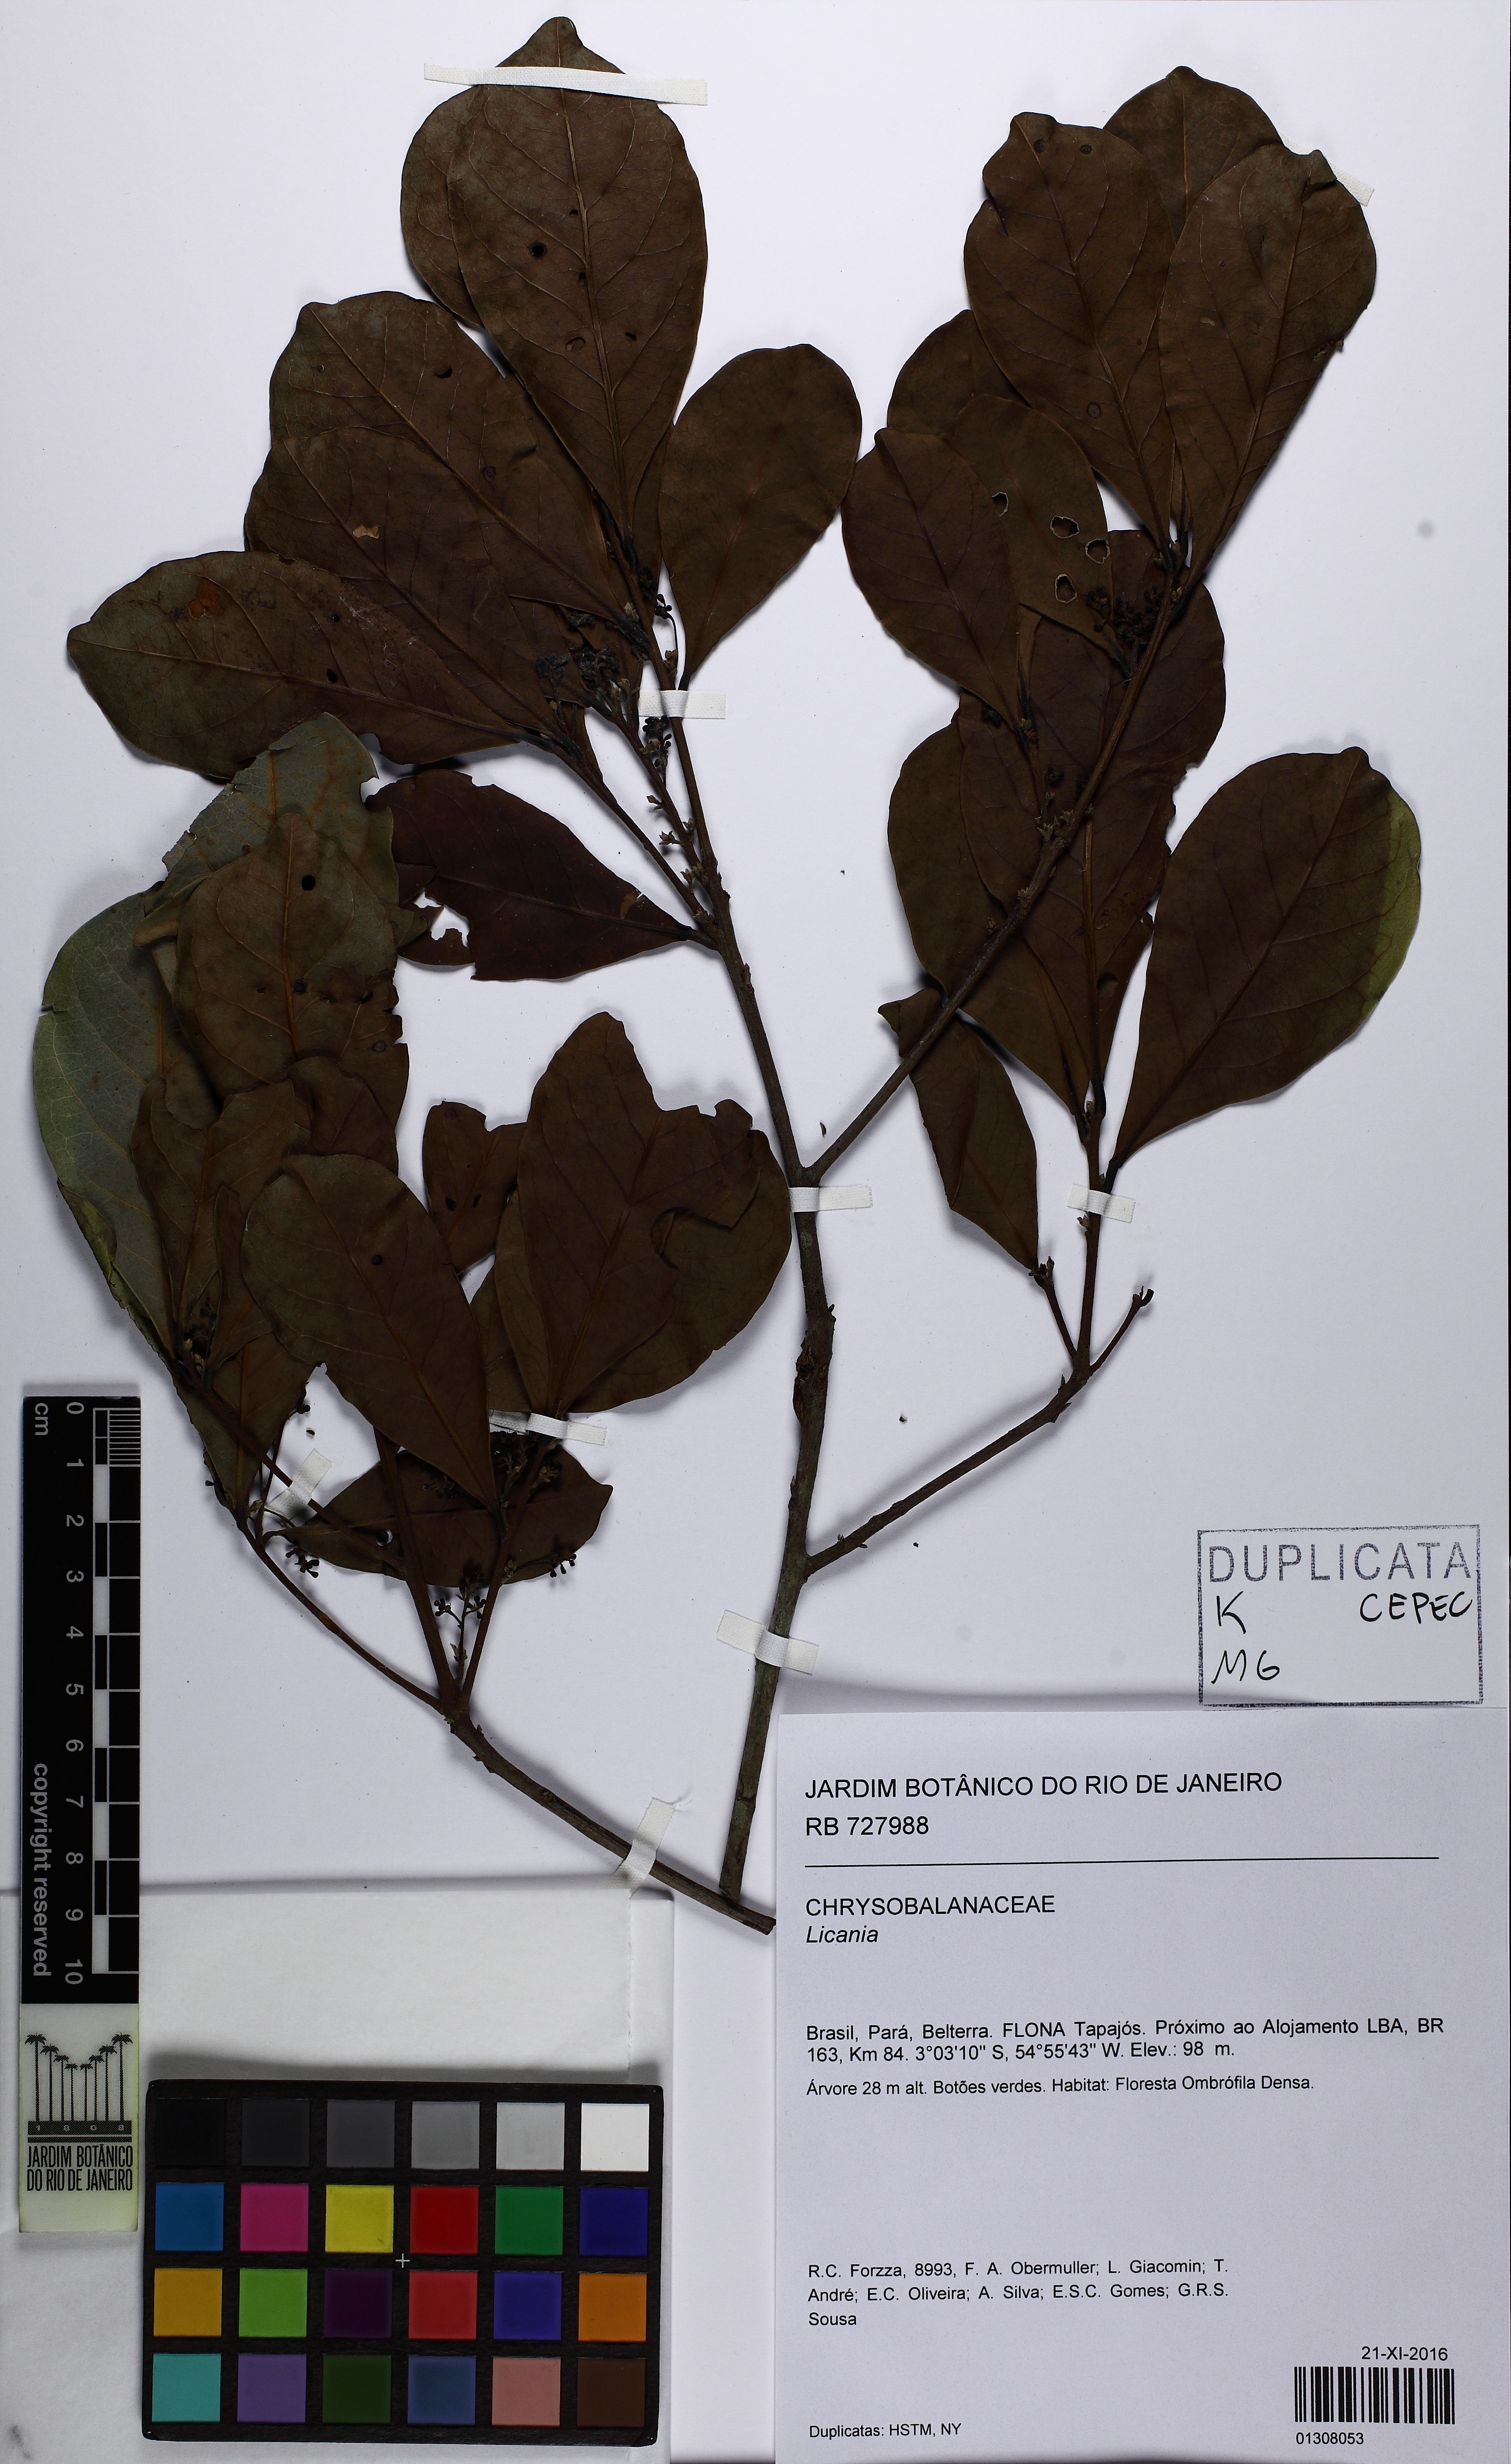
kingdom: Plantae
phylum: Tracheophyta
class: Magnoliopsida
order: Malpighiales
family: Chrysobalanaceae
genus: Licania
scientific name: Licania
